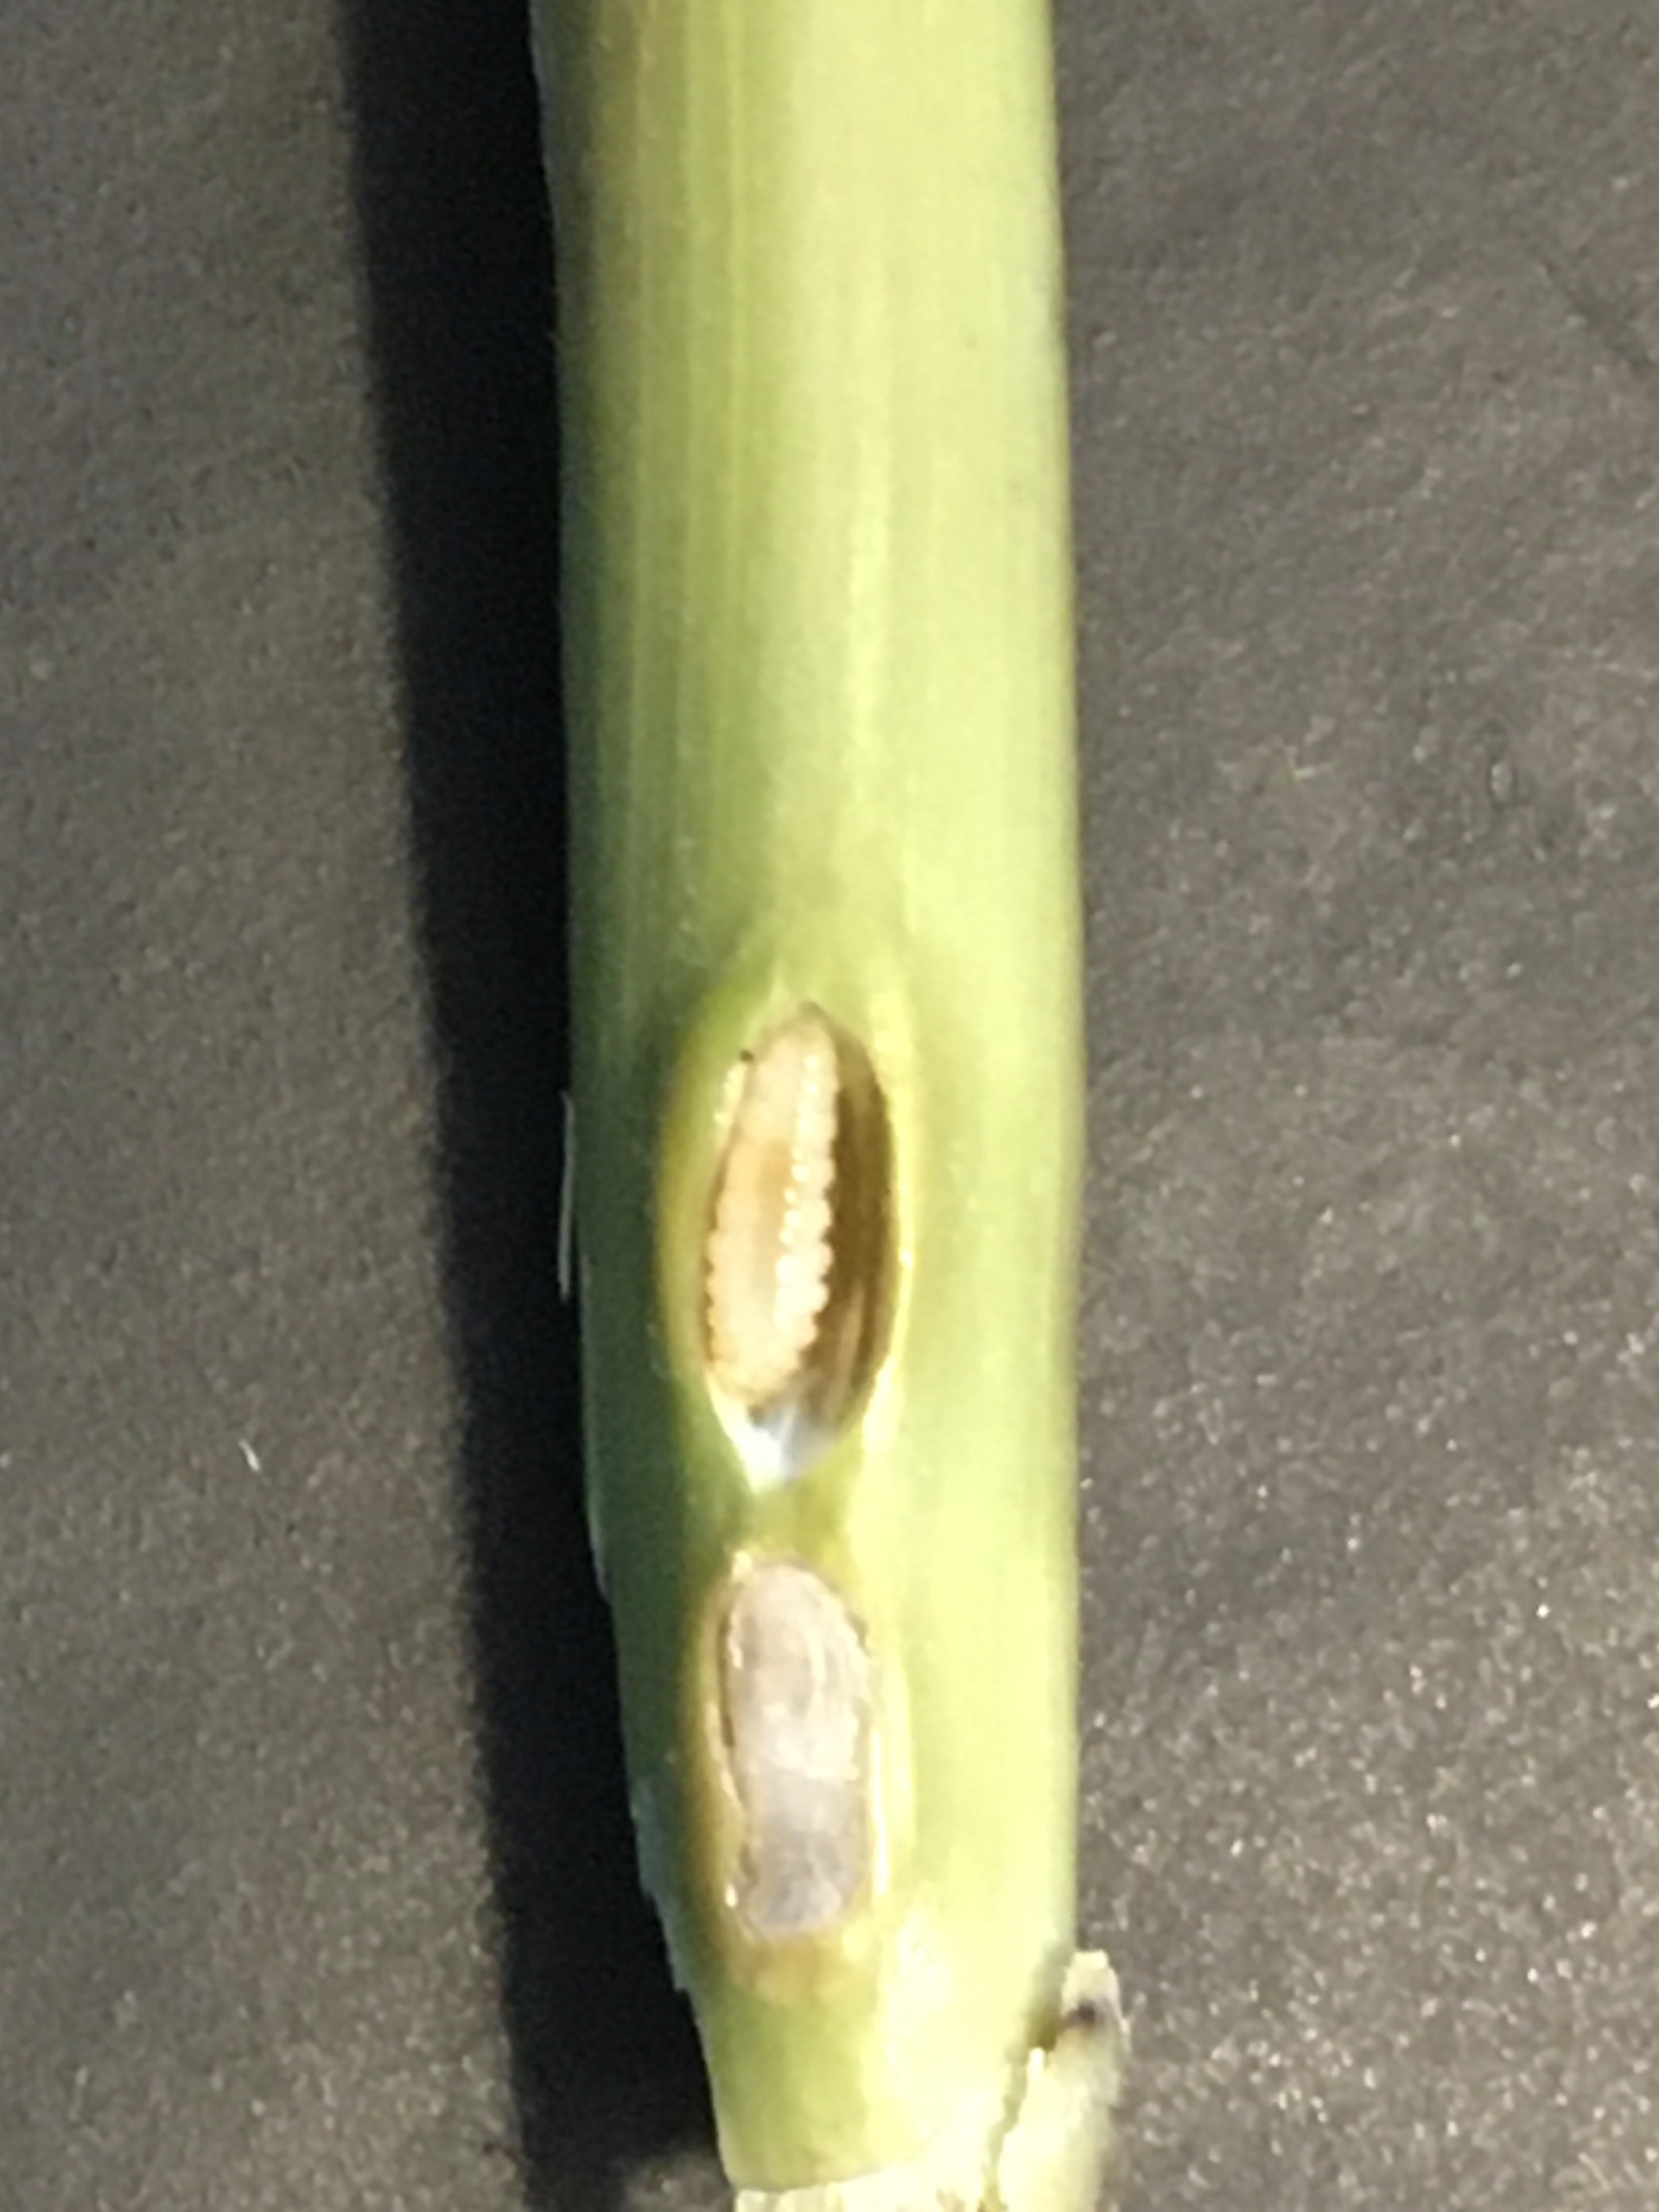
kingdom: Animalia
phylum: Arthropoda
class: Insecta
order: Diptera
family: Cecidomyiidae
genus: Giraudiella
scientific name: Giraudiella inclusa
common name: Riskorngalmyg
